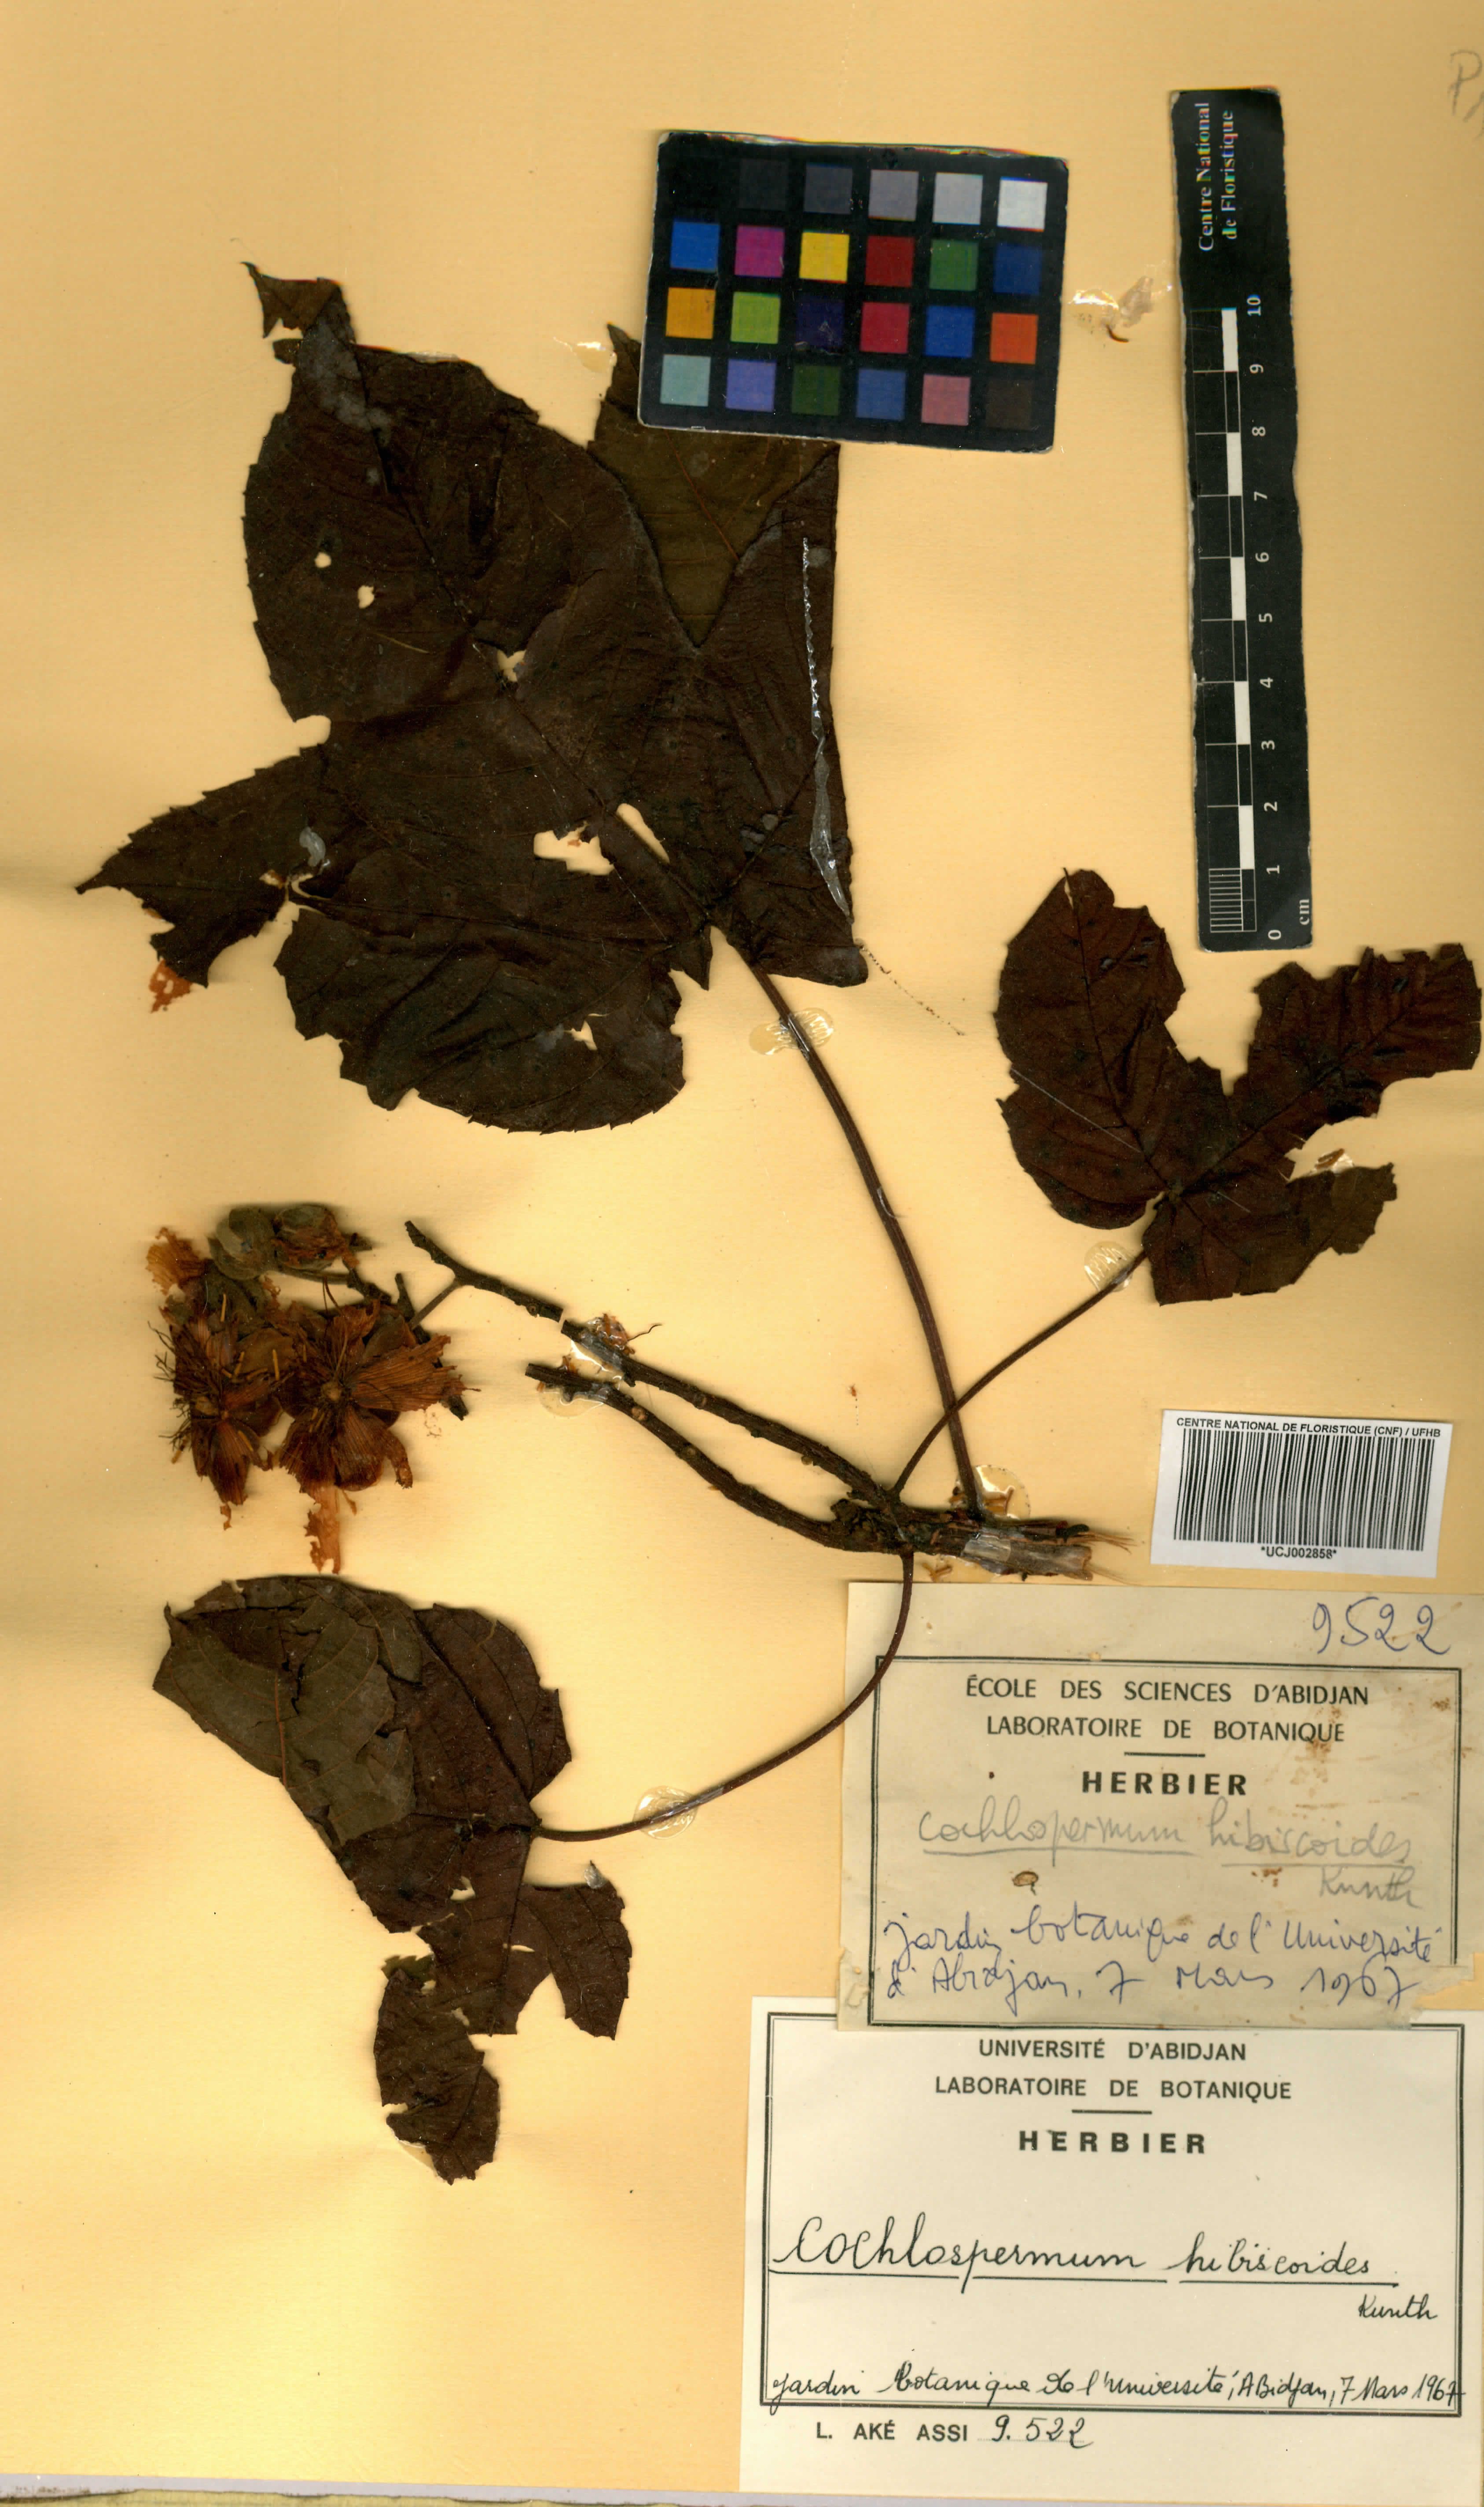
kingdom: Plantae
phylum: Tracheophyta
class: Magnoliopsida
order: Malvales
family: Cochlospermaceae
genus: Cochlospermum
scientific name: Cochlospermum vitifolium
